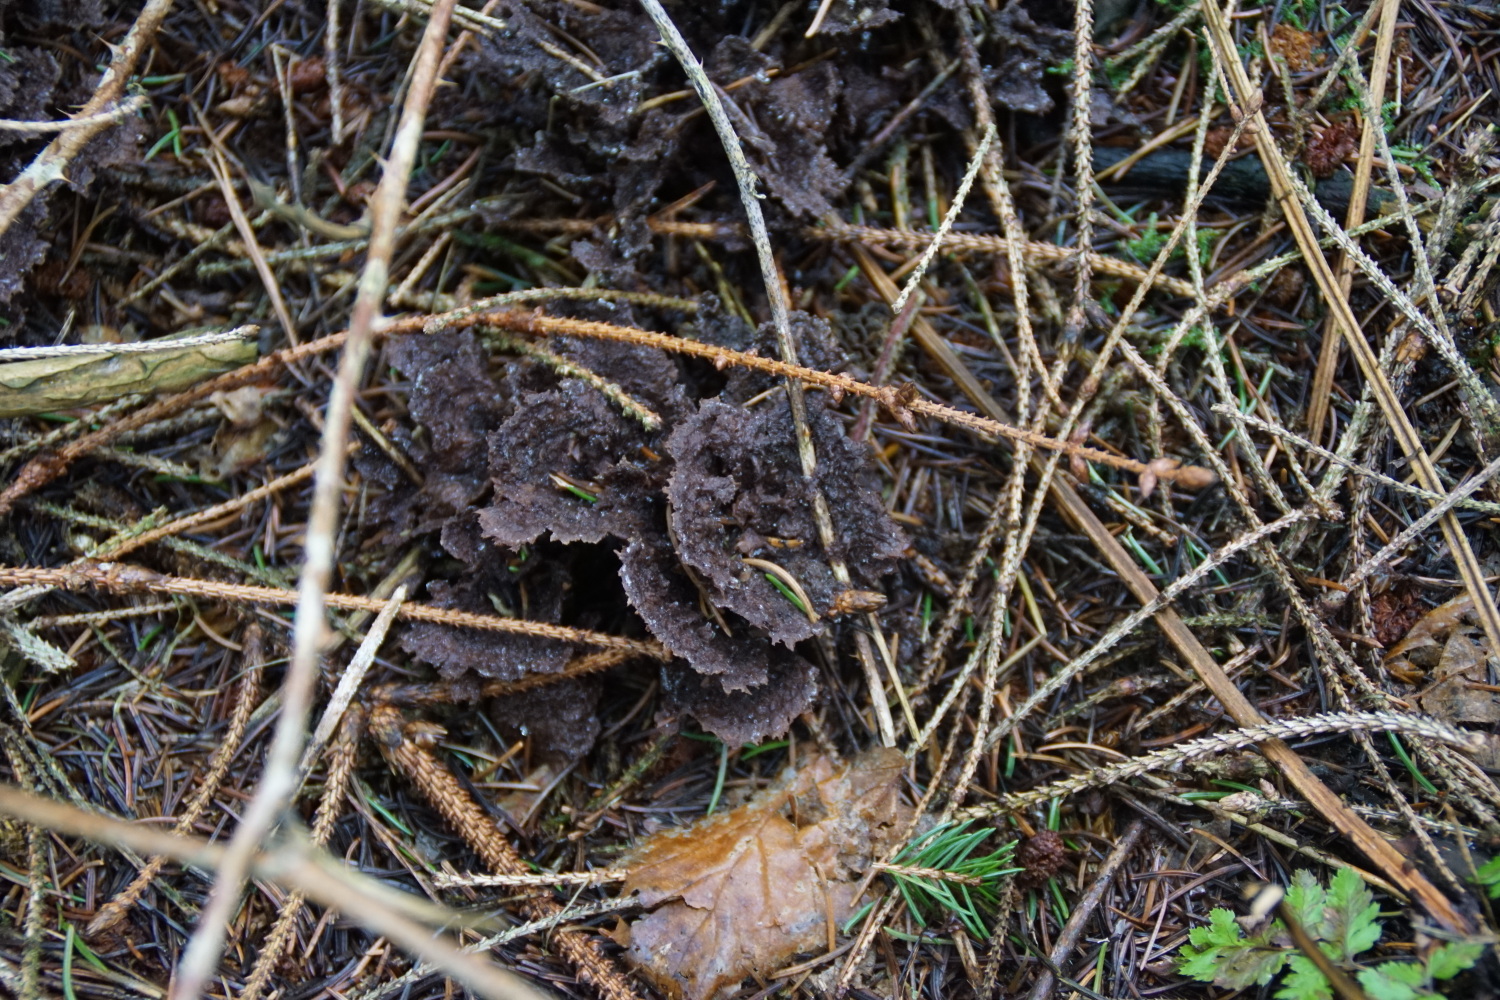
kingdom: Fungi
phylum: Basidiomycota
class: Agaricomycetes
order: Thelephorales
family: Thelephoraceae
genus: Thelephora
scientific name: Thelephora terrestris
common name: fliget frynsesvamp
